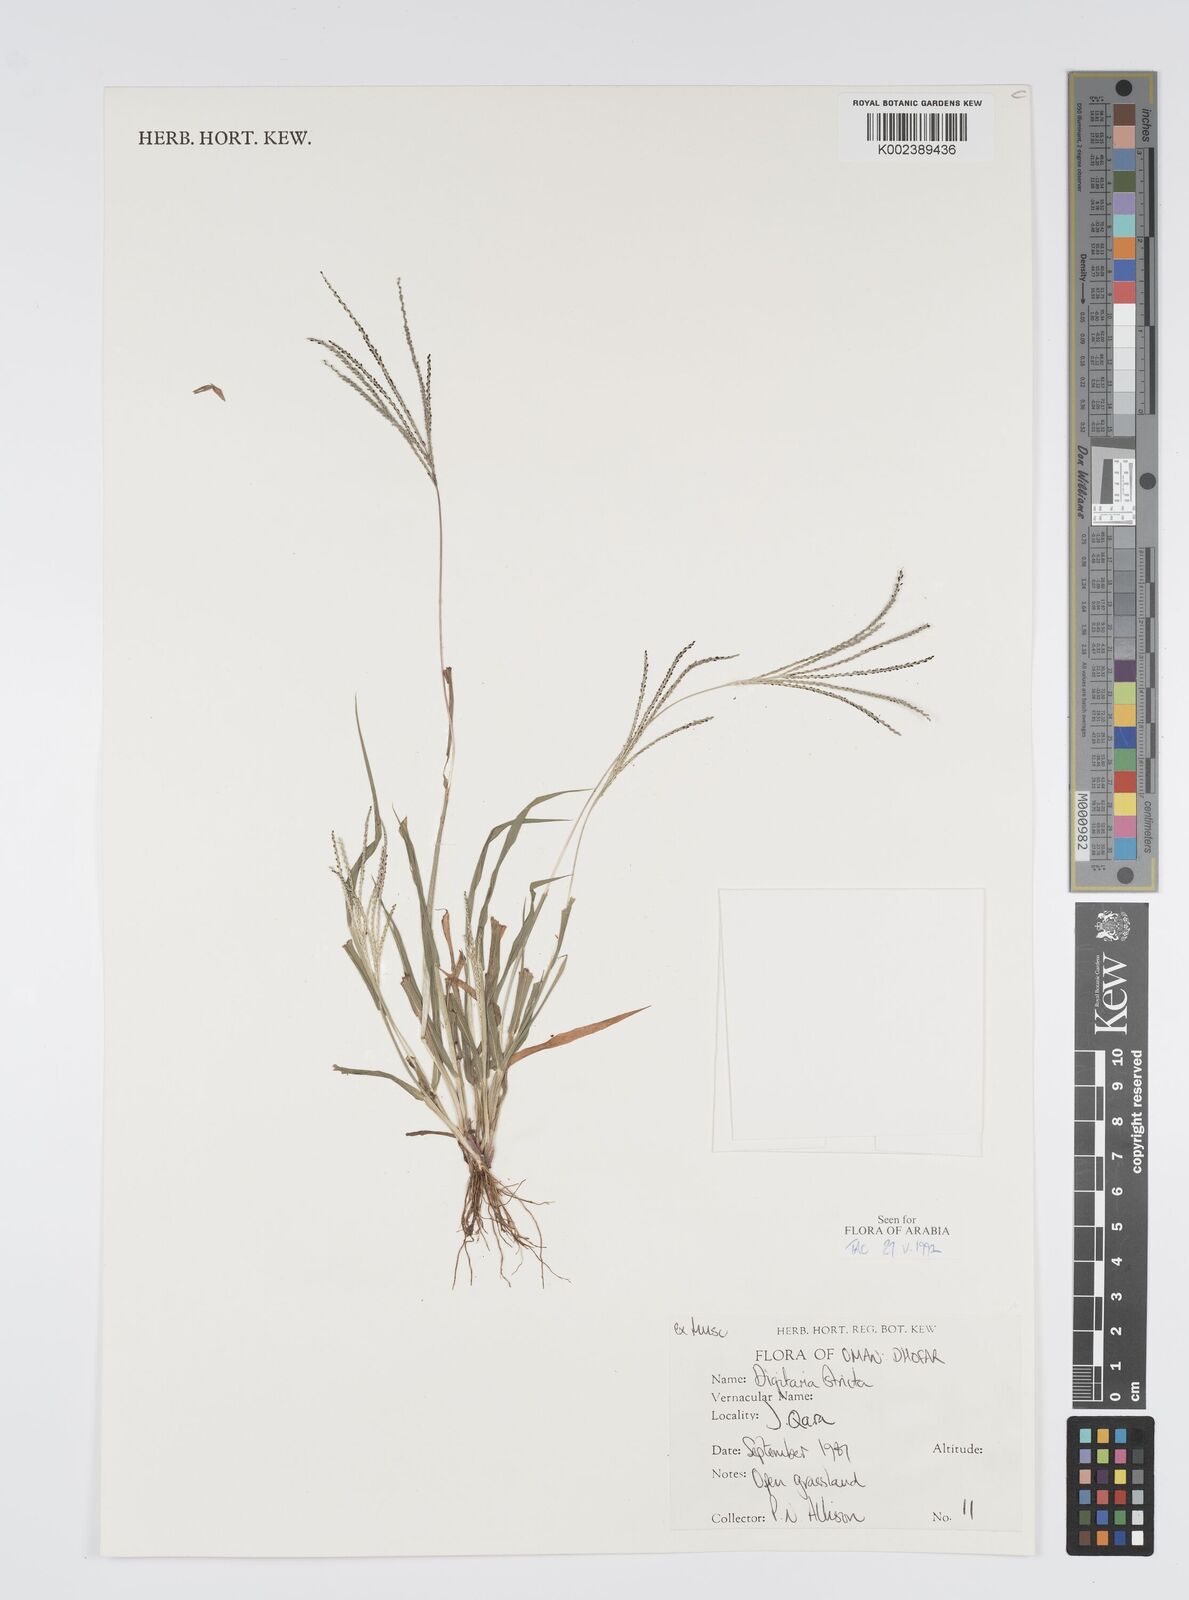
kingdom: Plantae
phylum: Tracheophyta
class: Liliopsida
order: Poales
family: Poaceae
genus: Digitaria
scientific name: Digitaria stricta
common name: Crabgrass
